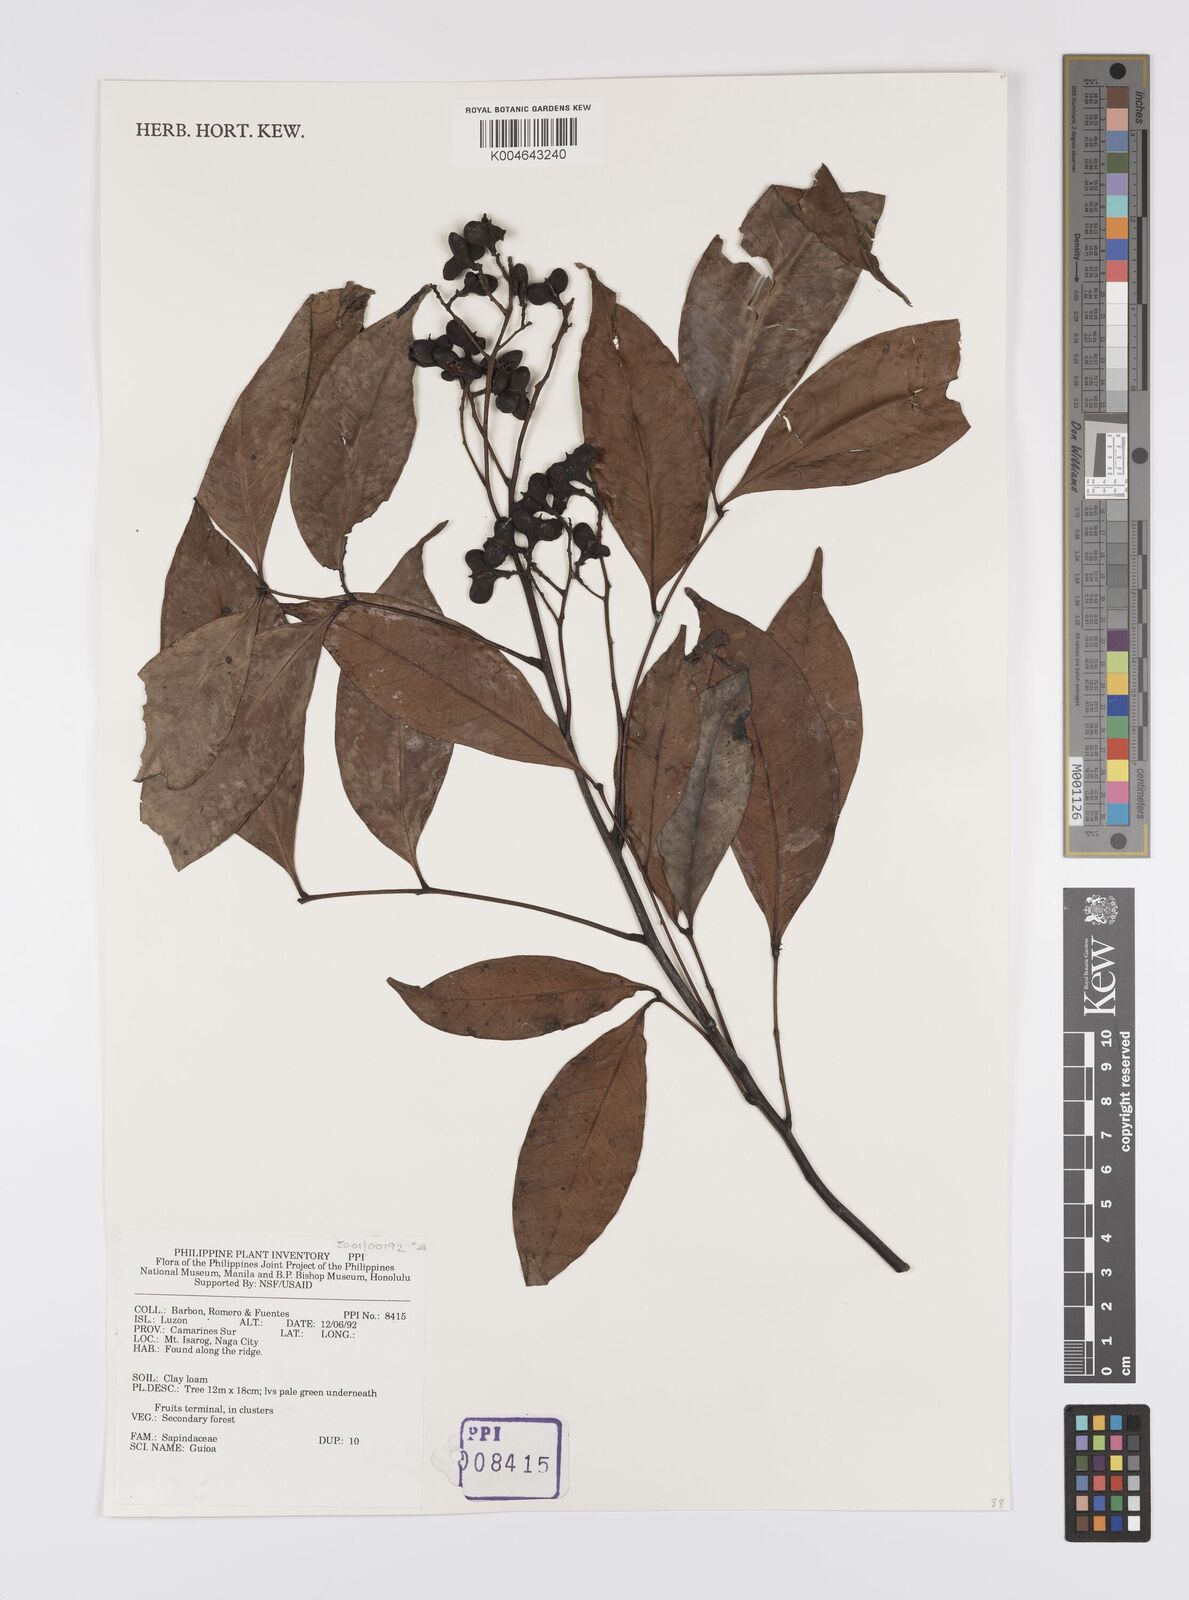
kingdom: Plantae
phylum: Tracheophyta
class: Magnoliopsida
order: Sapindales
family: Sapindaceae
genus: Guioa
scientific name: Guioa
